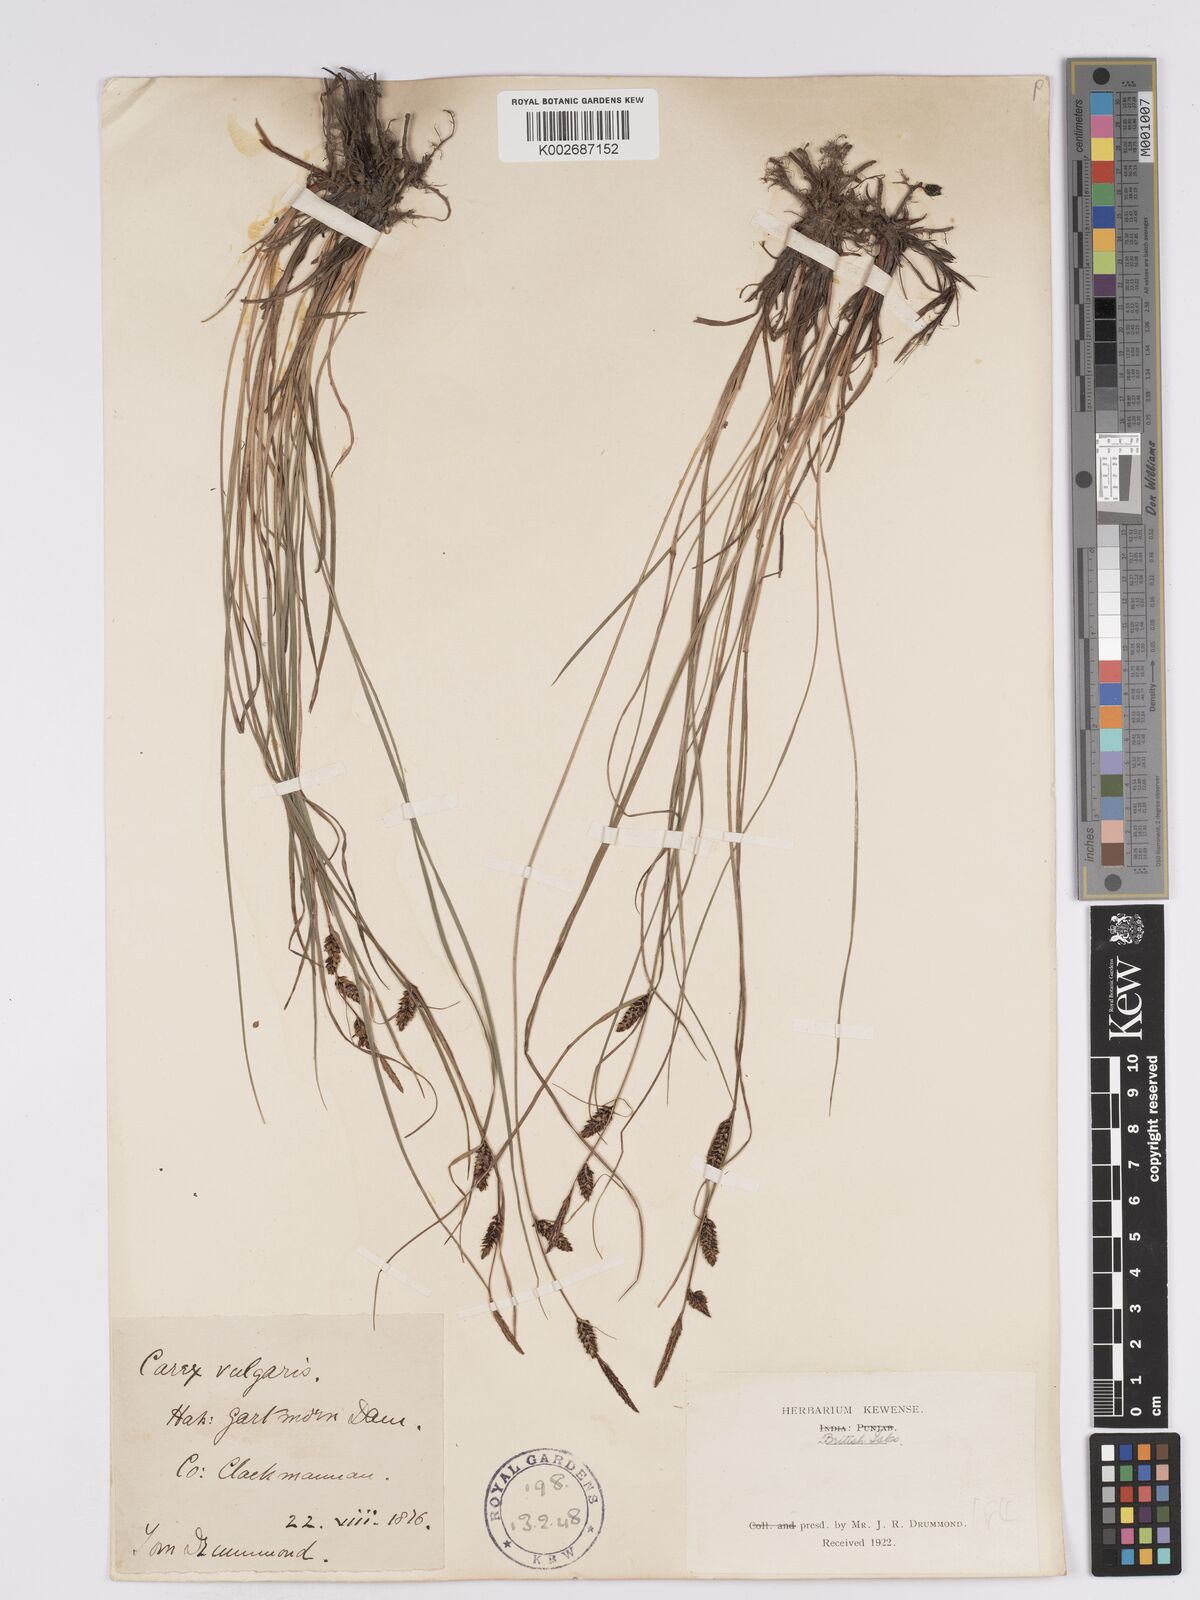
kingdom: Plantae
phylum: Tracheophyta
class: Liliopsida
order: Poales
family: Cyperaceae
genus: Carex
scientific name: Carex nigra
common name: Common sedge
